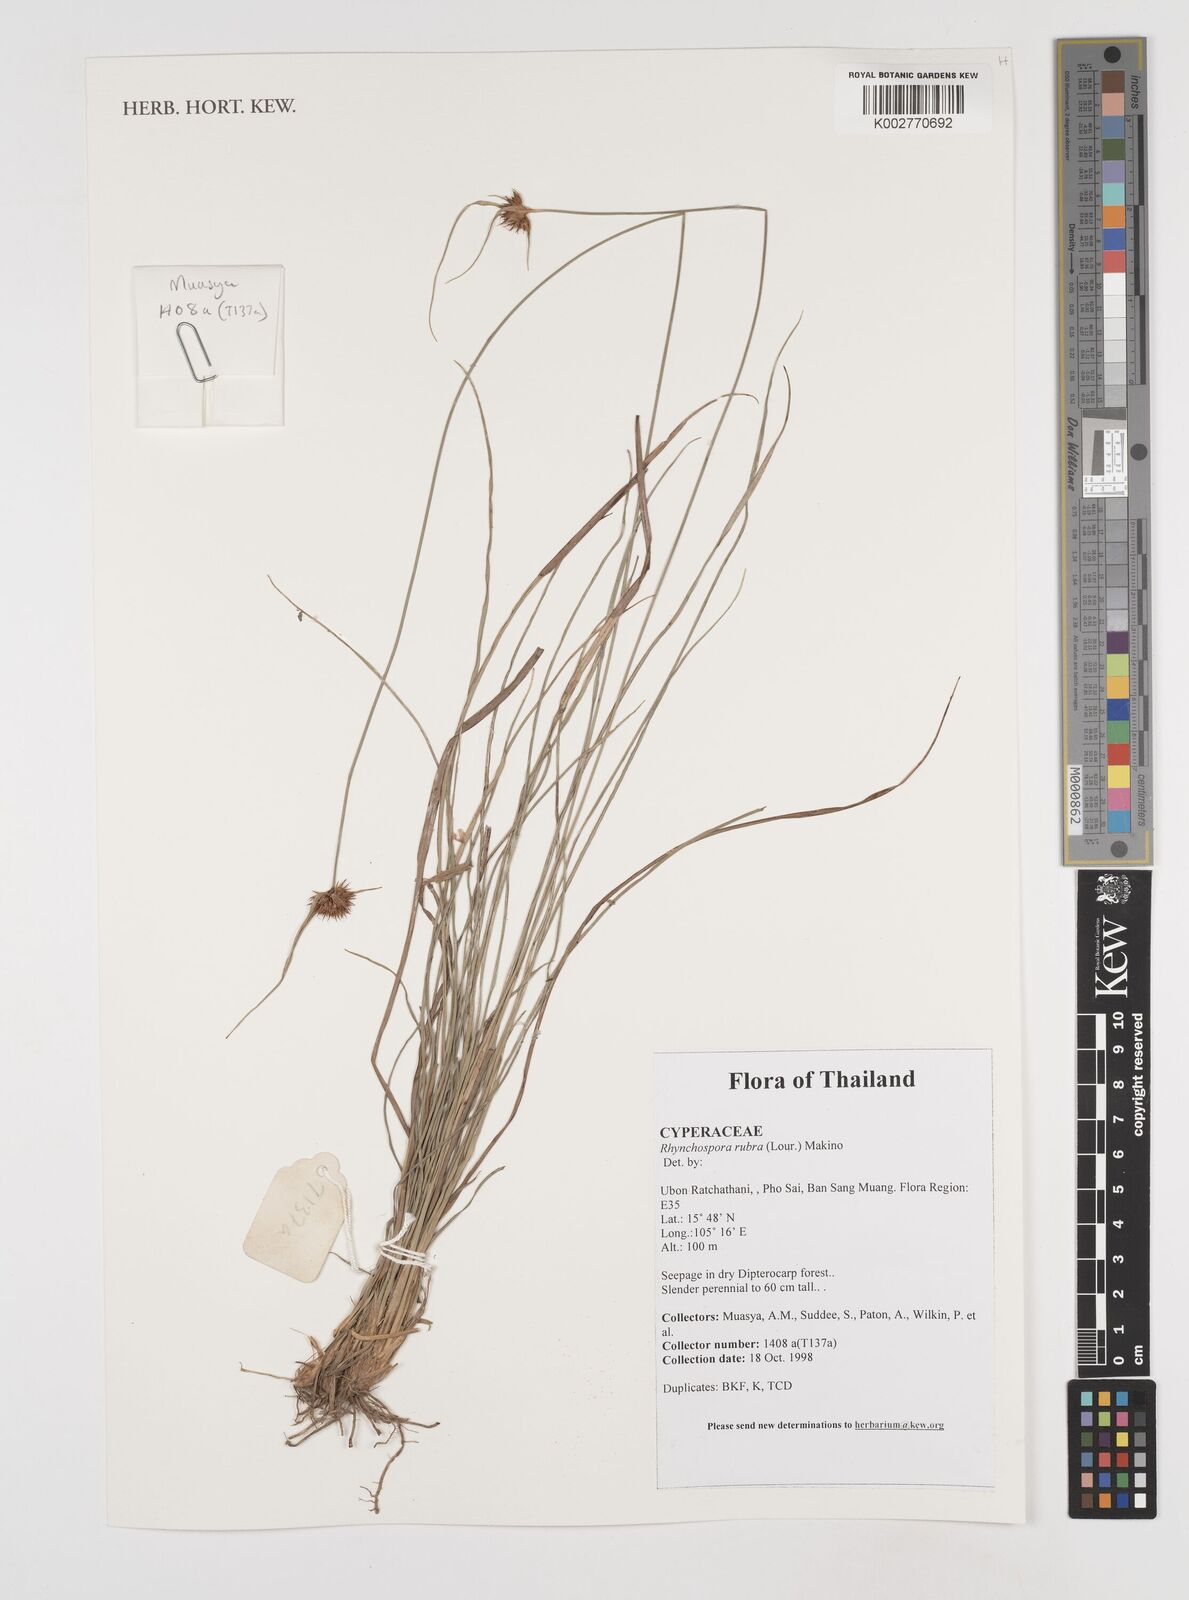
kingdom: Plantae
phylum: Tracheophyta
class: Liliopsida
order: Poales
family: Cyperaceae
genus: Rhynchospora
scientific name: Rhynchospora rubra
